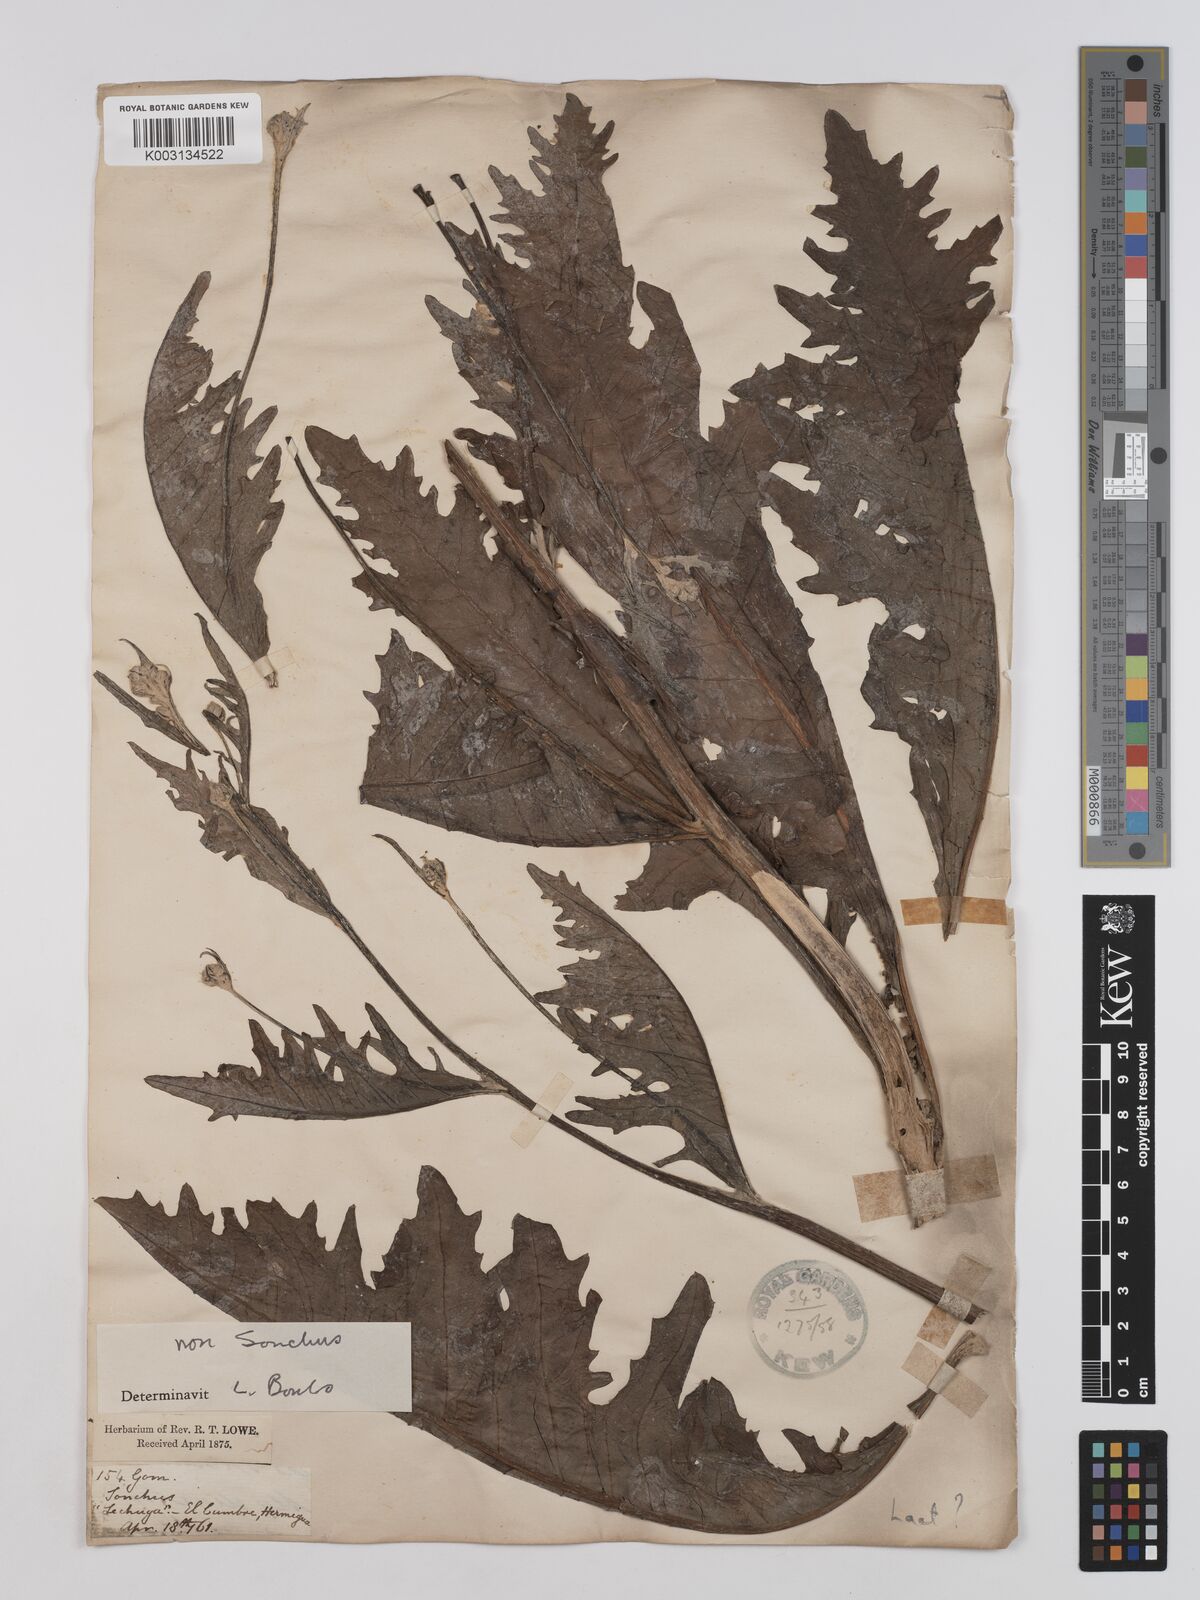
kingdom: Plantae
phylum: Tracheophyta
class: Magnoliopsida
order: Asterales
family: Asteraceae
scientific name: Asteraceae
